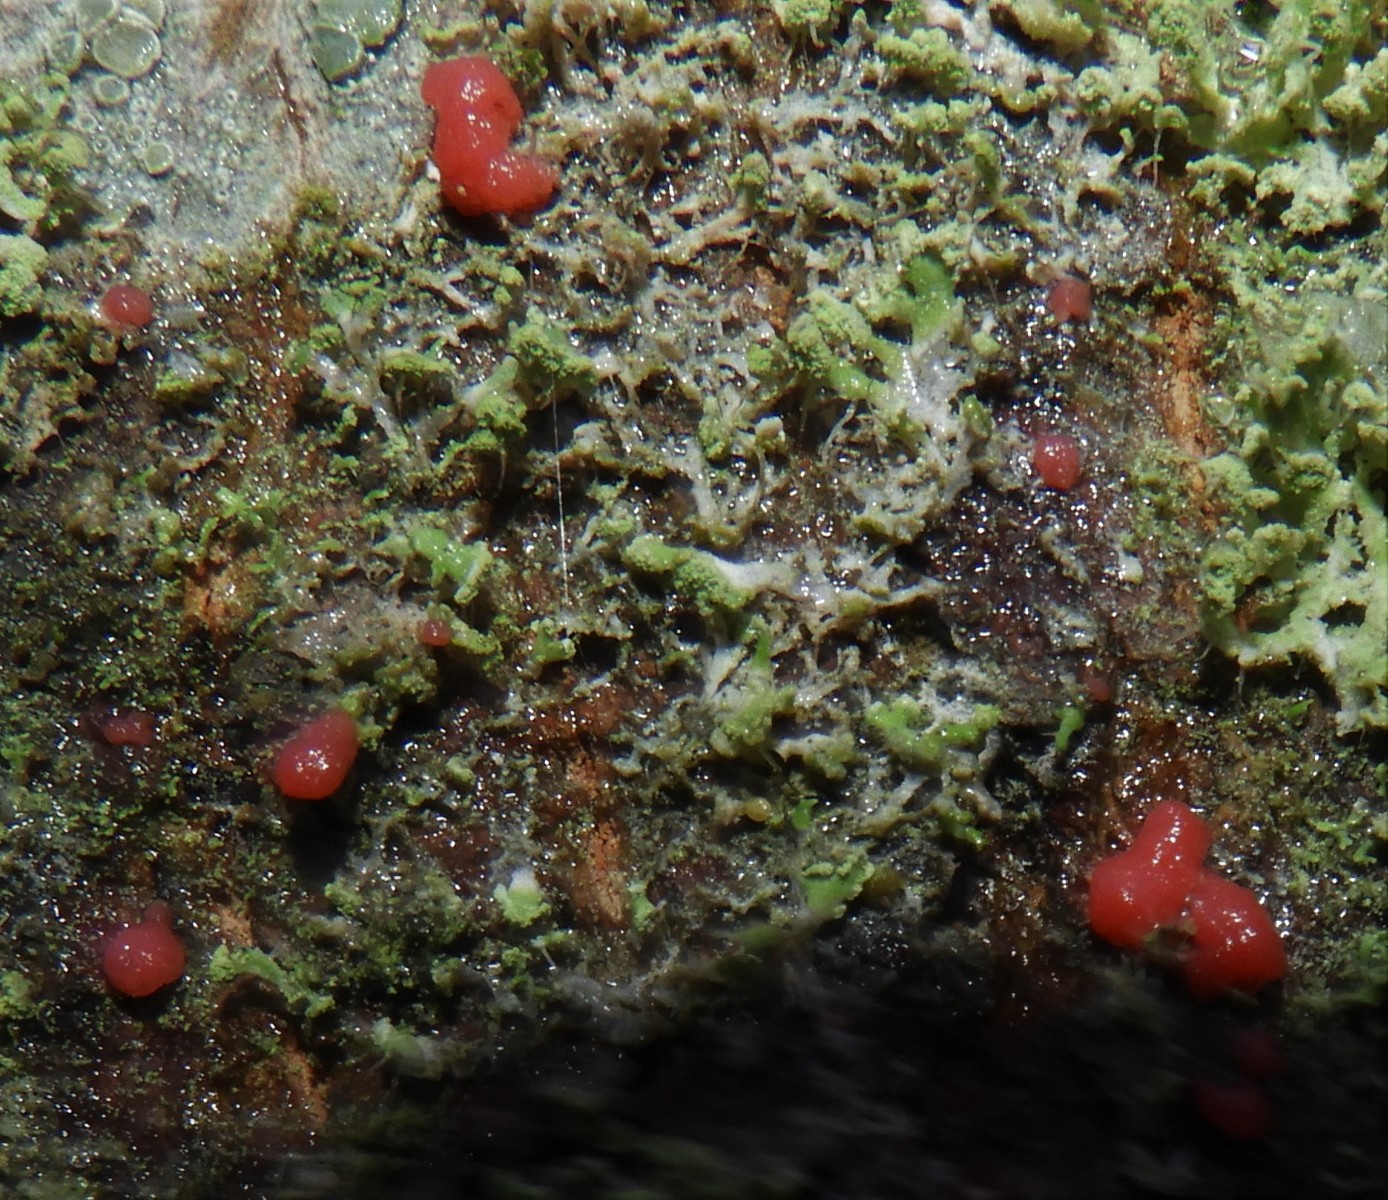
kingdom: Fungi
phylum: Ascomycota
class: Sordariomycetes
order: Hypocreales
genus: Illosporiopsis
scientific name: Illosporiopsis christiansenii
